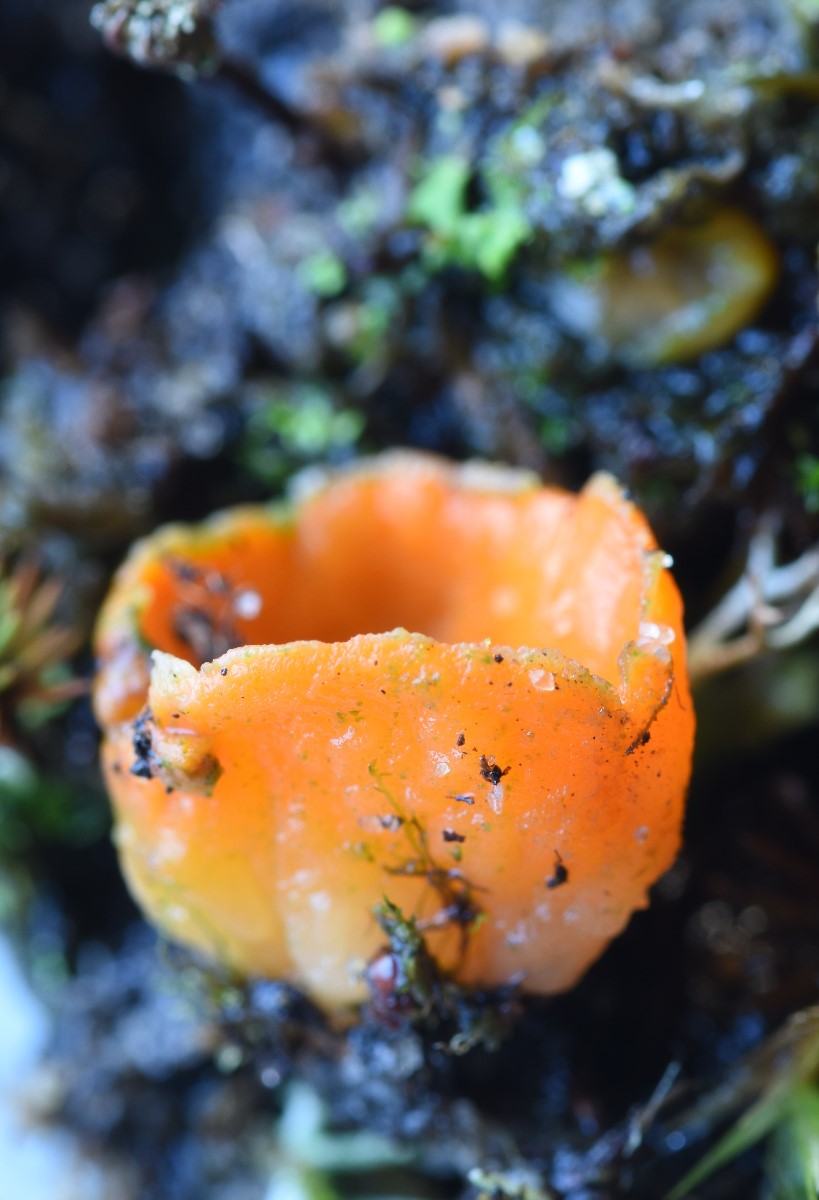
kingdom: Fungi
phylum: Ascomycota
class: Pezizomycetes
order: Pezizales
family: Pyronemataceae
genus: Neottiella
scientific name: Neottiella rutilans
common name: jomfruhår-mosbæger
